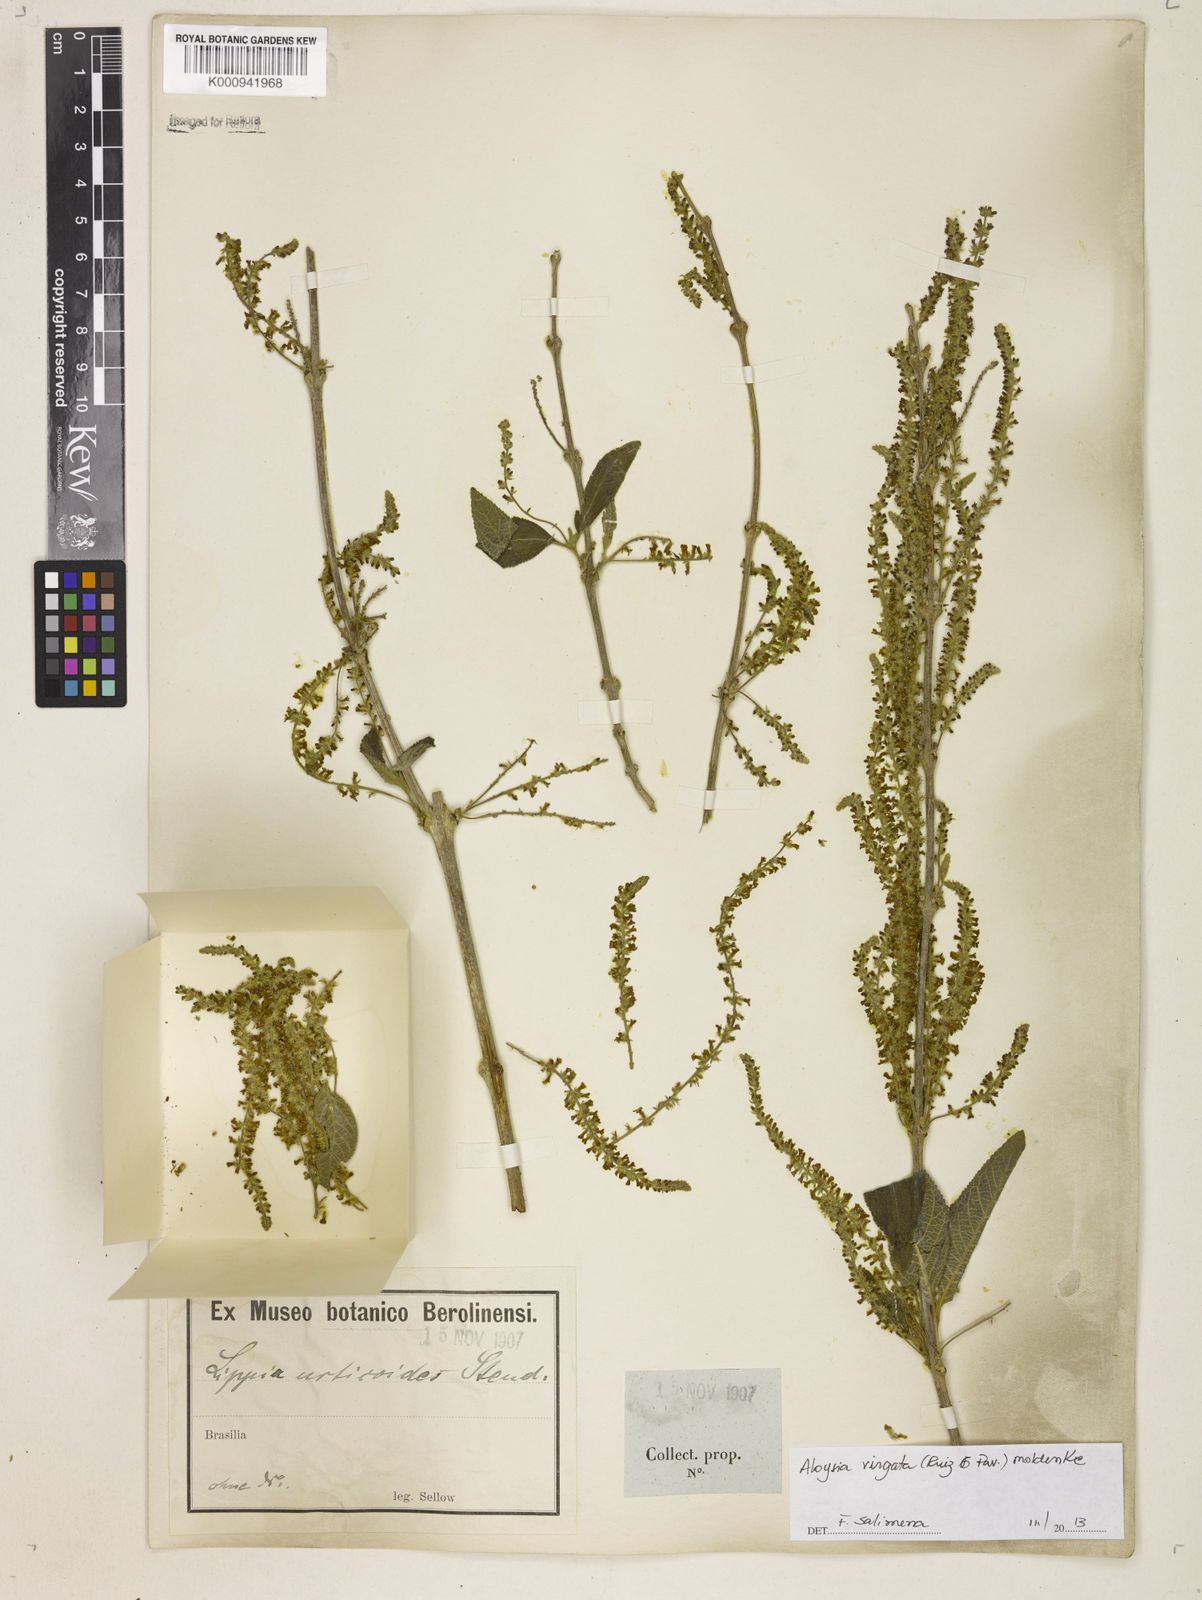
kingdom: Plantae
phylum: Tracheophyta
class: Magnoliopsida
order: Lamiales
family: Verbenaceae
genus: Aloysia
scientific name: Aloysia
